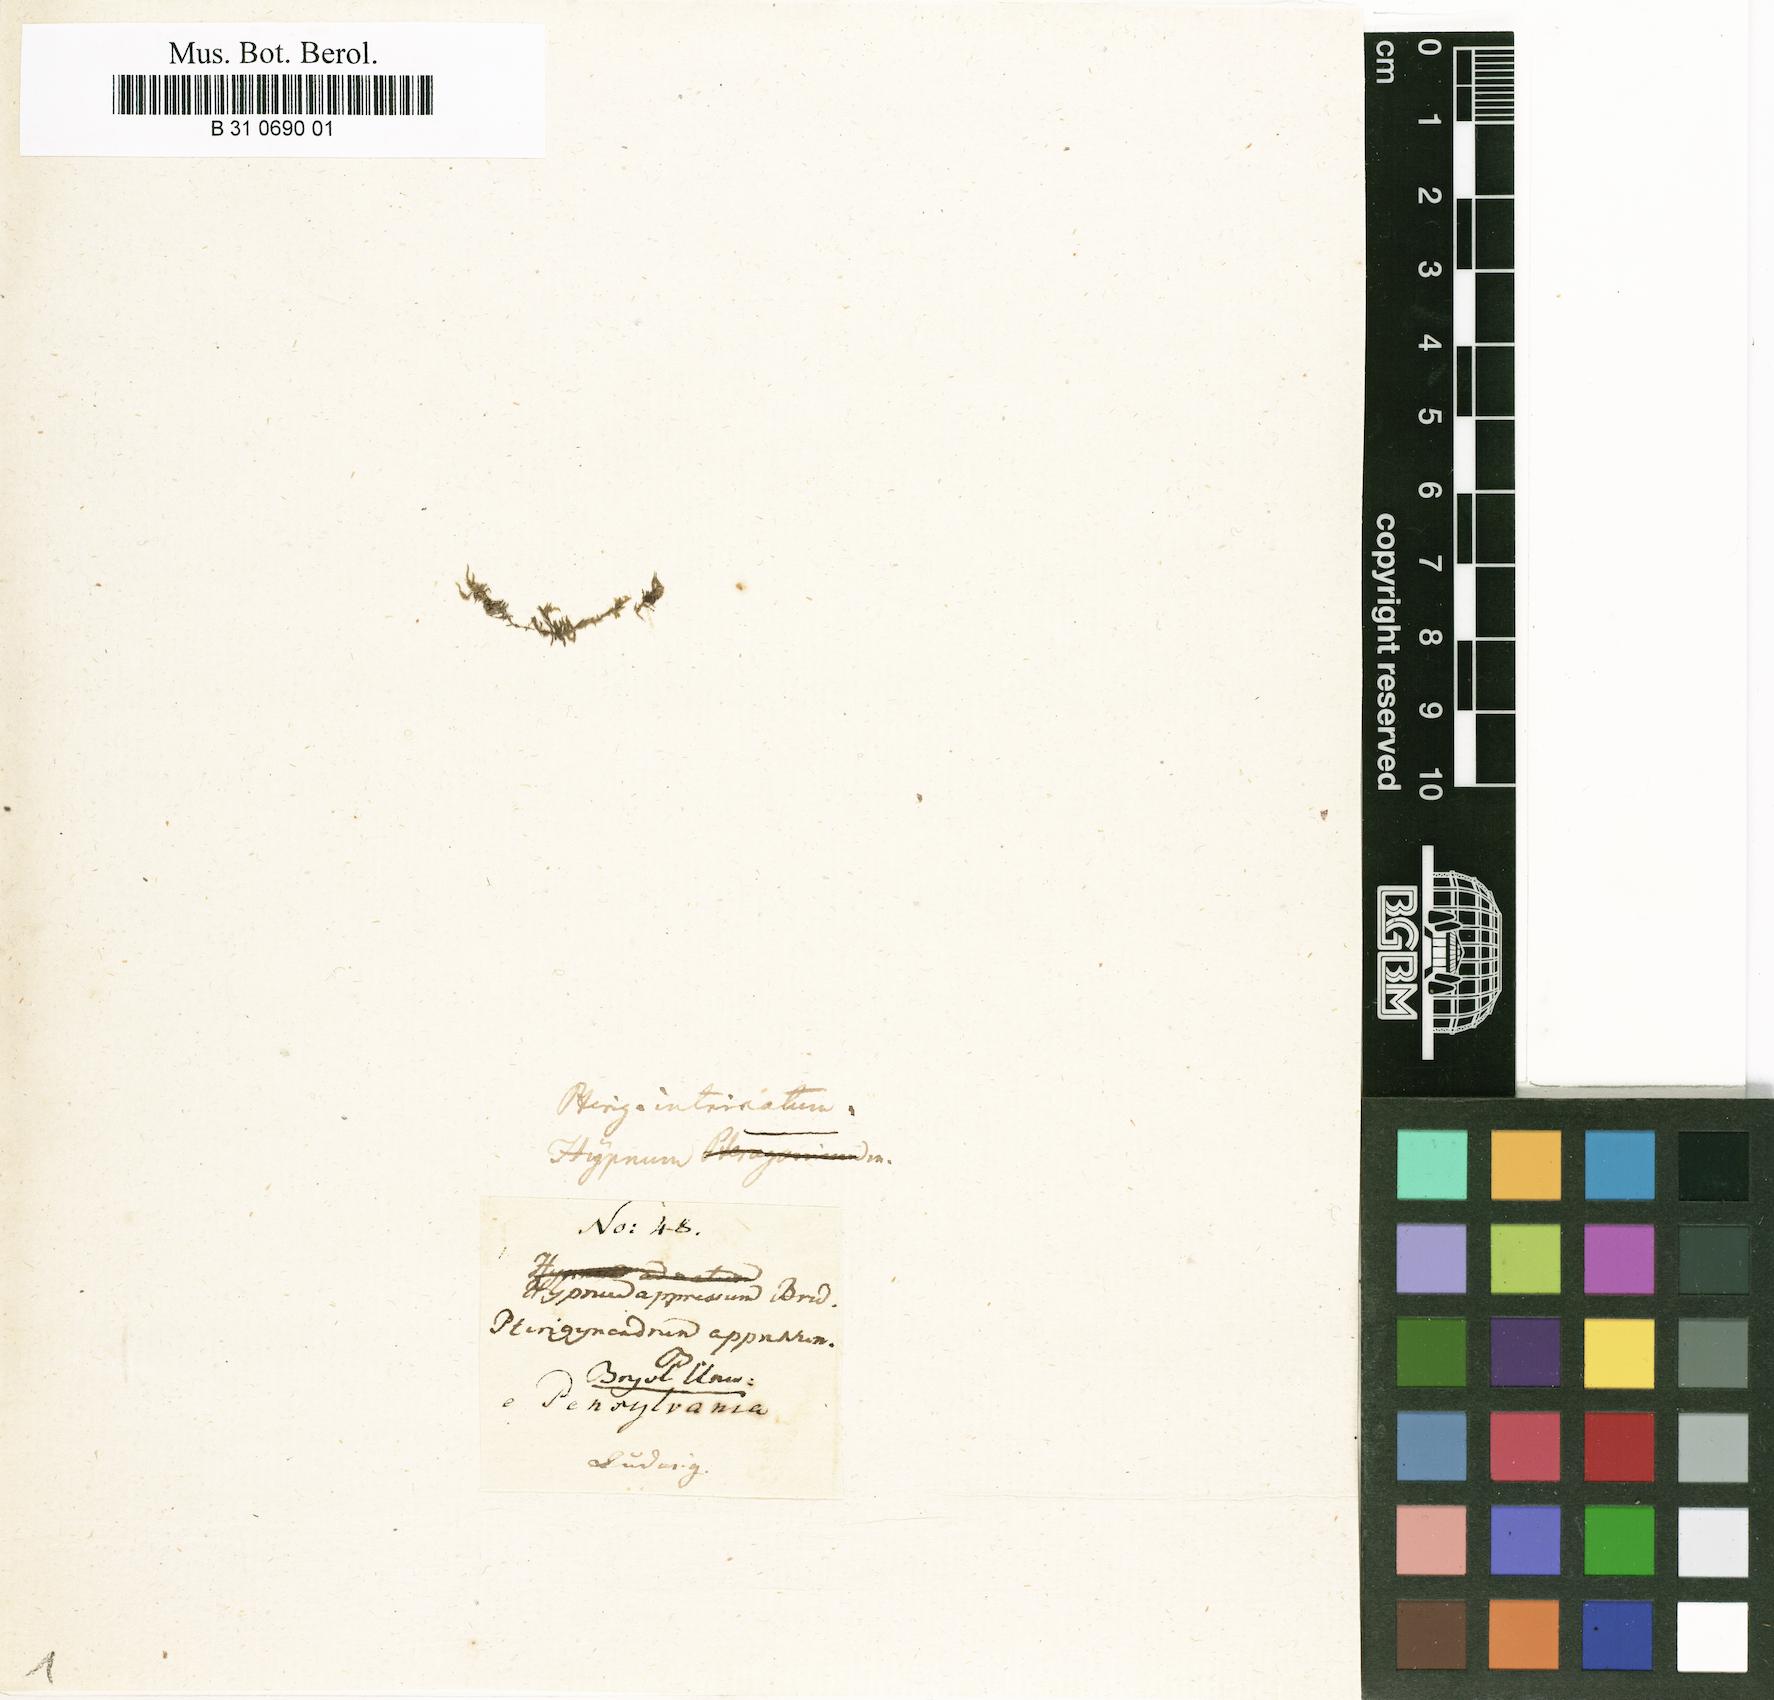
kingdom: Plantae
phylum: Bryophyta
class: Bryopsida
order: Hypnales
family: Pylaisiaceae
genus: Pylaisia
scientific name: Pylaisia intricata
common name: Intricate pylaisia
